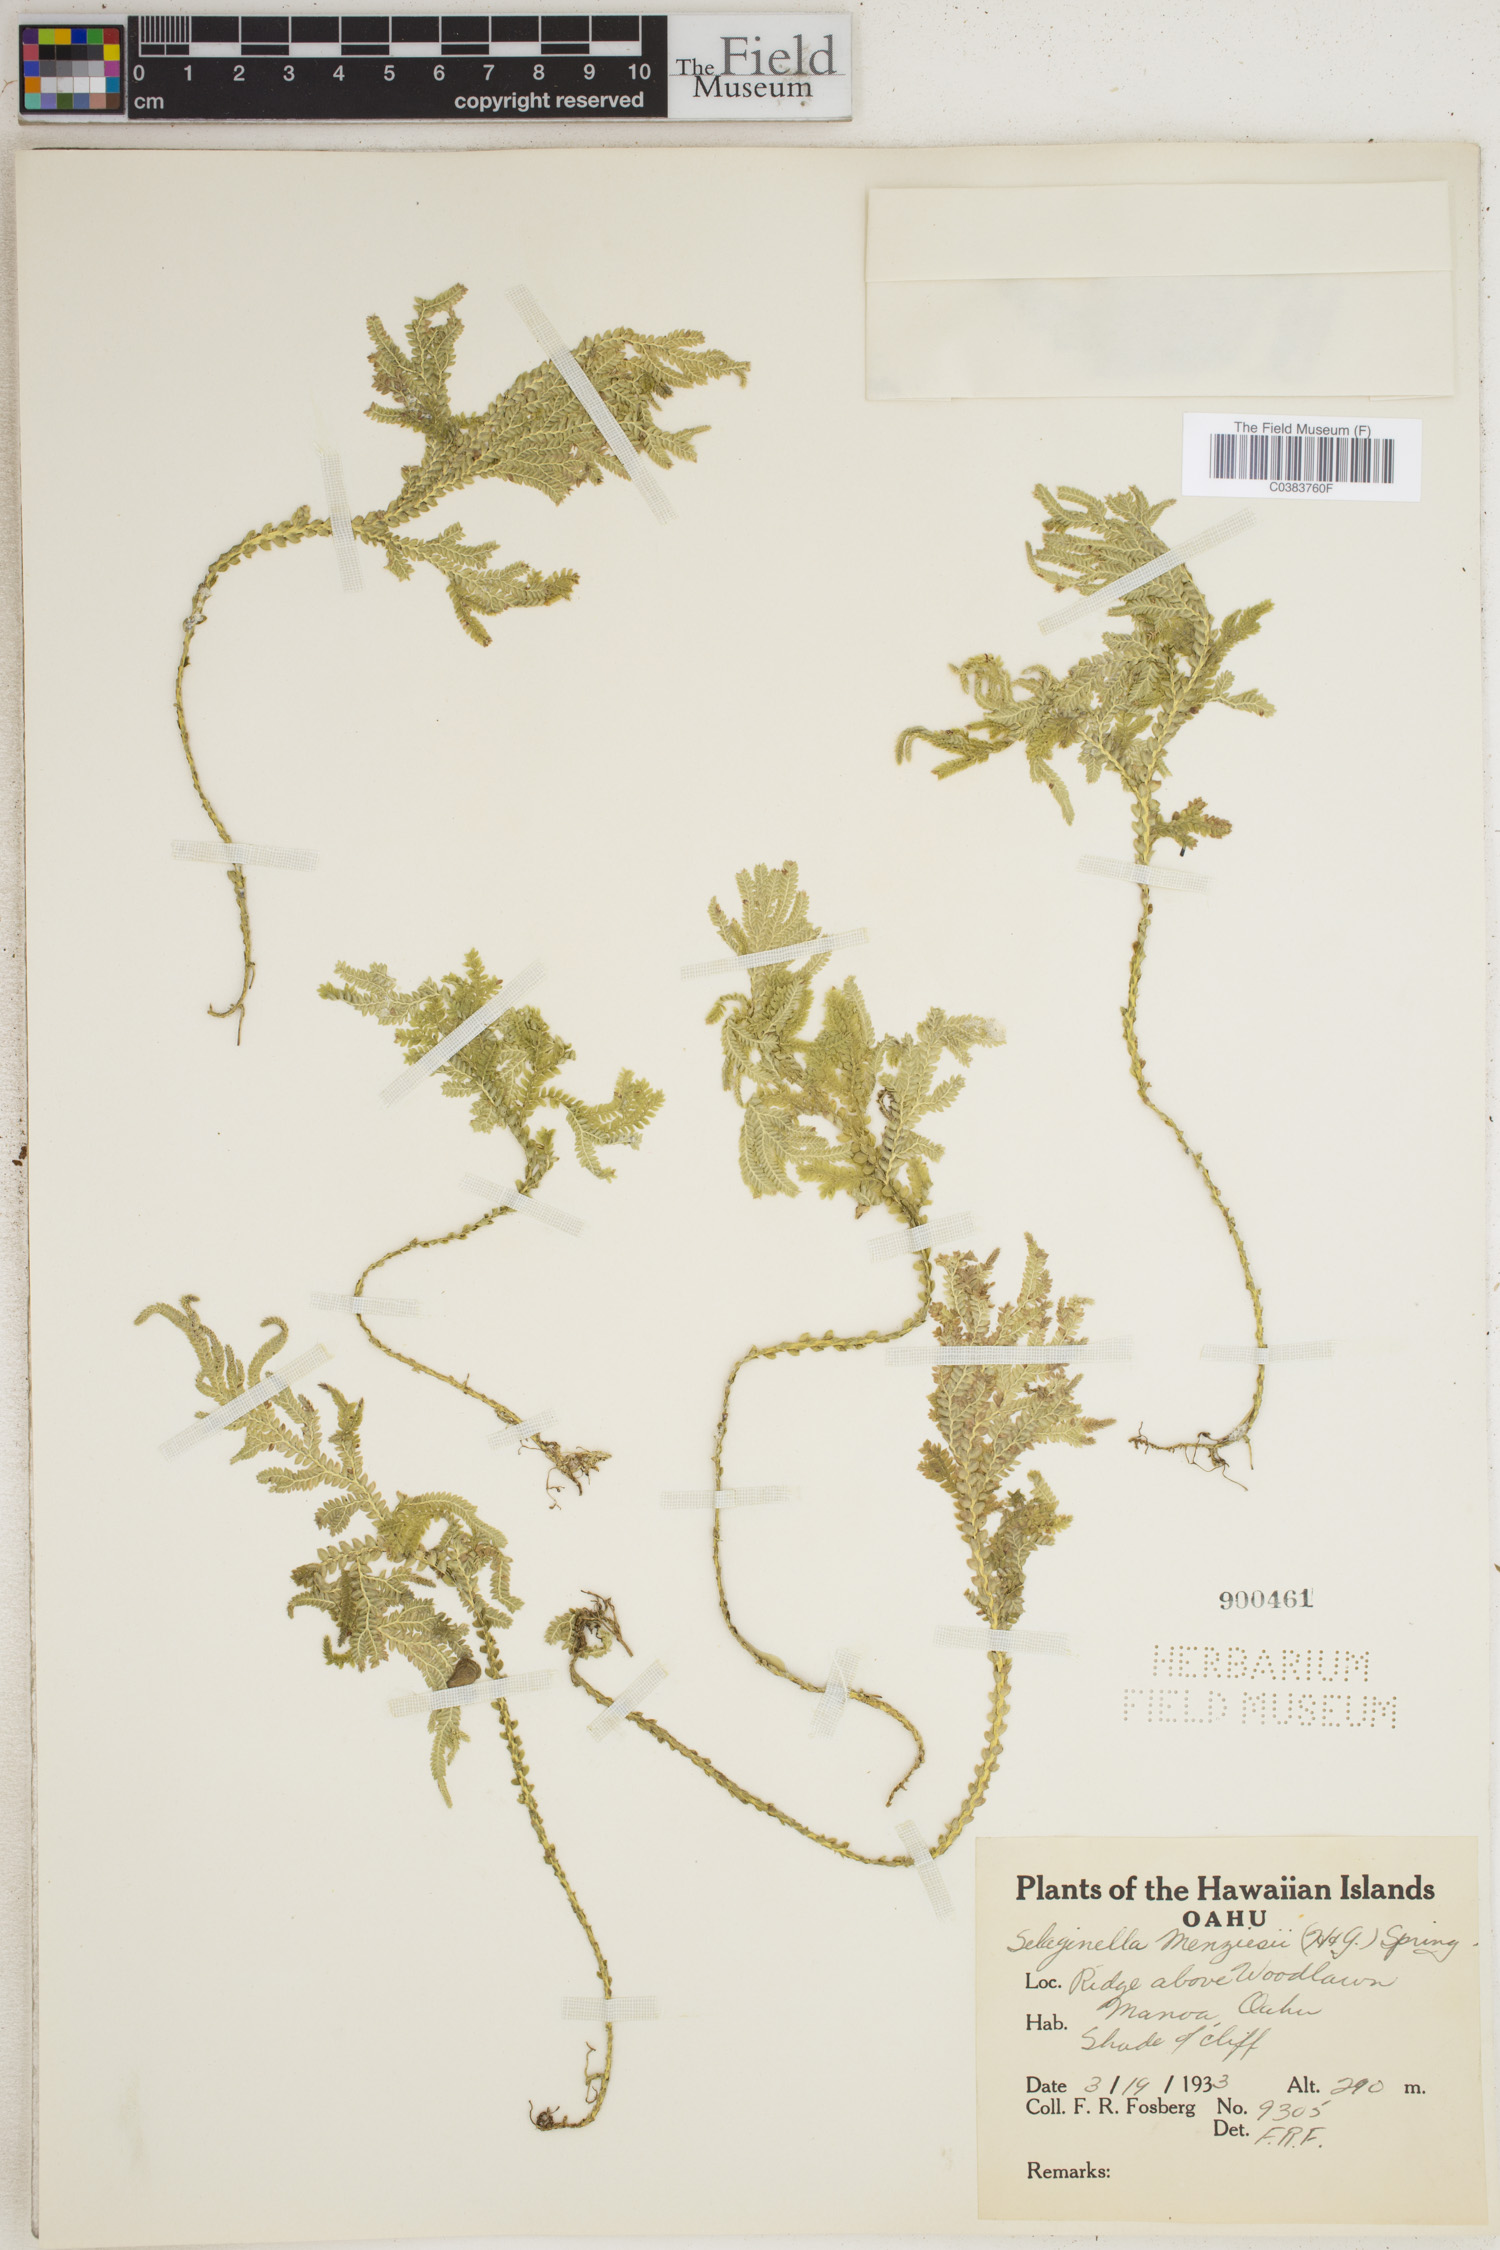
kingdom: Plantae
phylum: Tracheophyta
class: Lycopodiopsida
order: Selaginellales
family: Selaginellaceae
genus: Selaginella
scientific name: Selaginella menziesii
